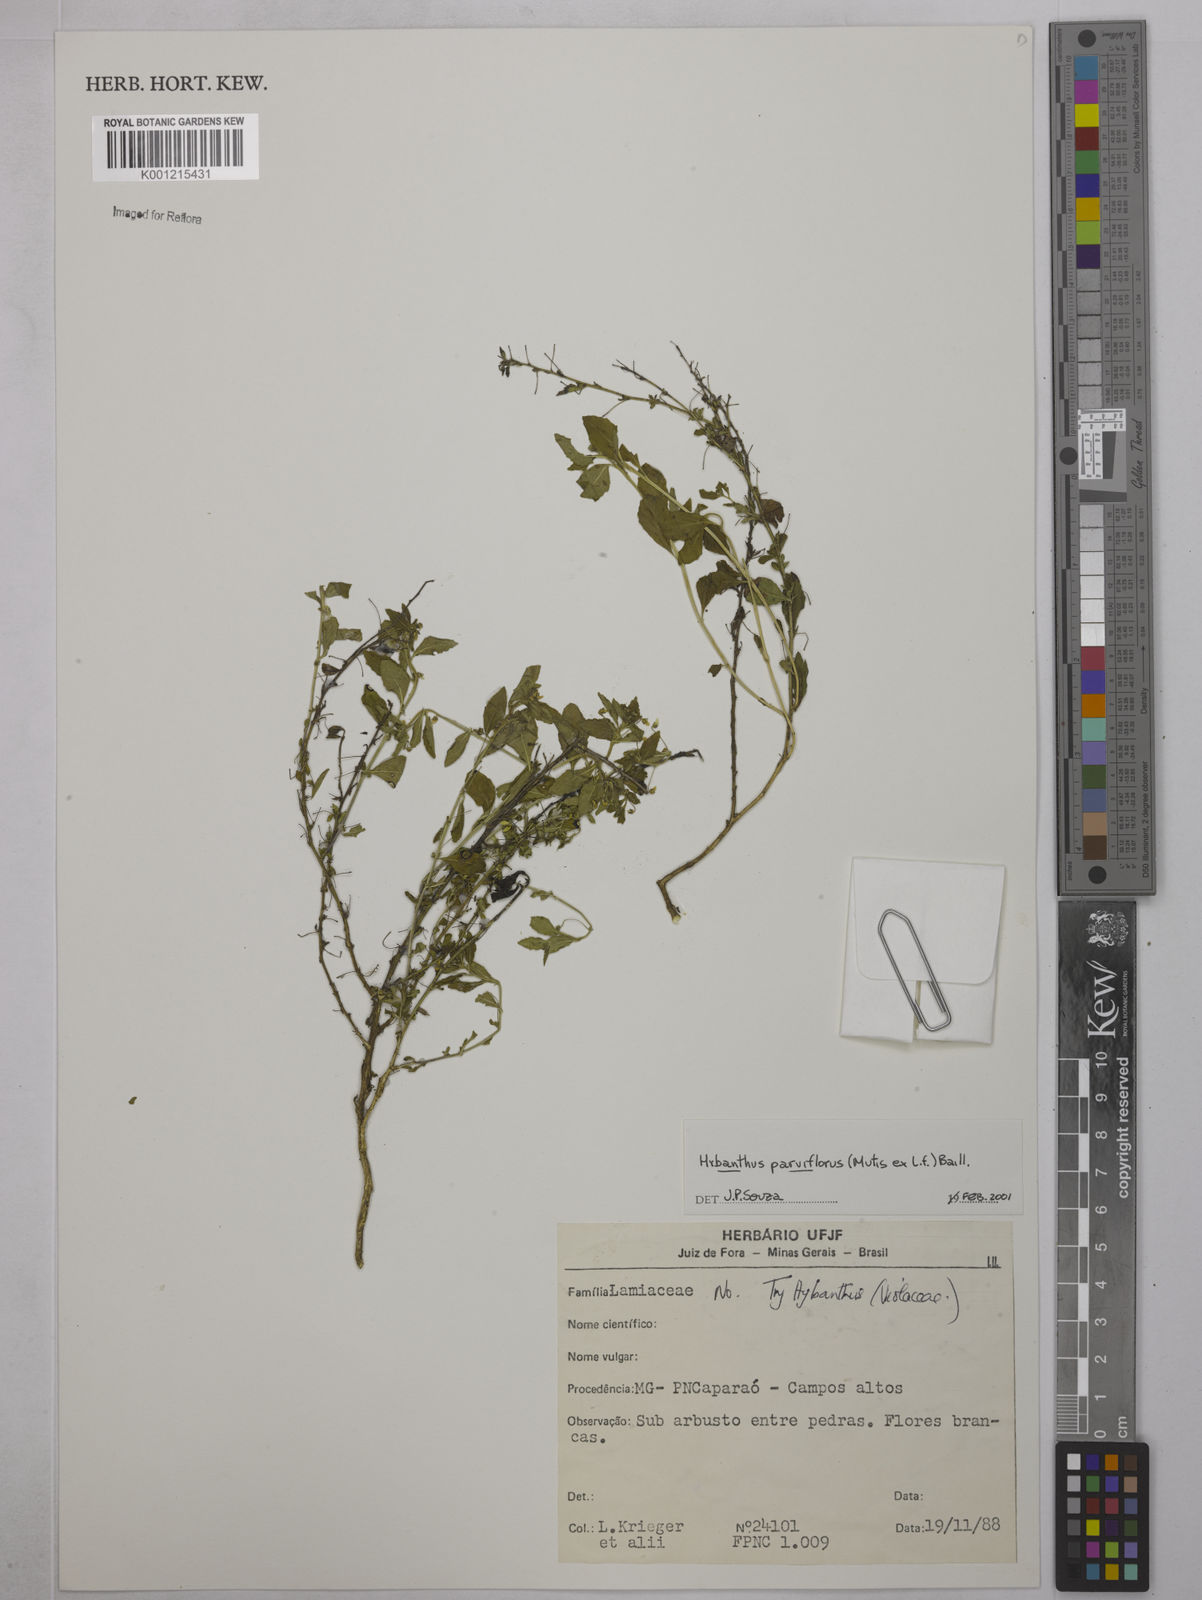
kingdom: Plantae
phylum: Tracheophyta
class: Magnoliopsida
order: Malpighiales
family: Violaceae
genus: Pombalia
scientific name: Pombalia parviflora
